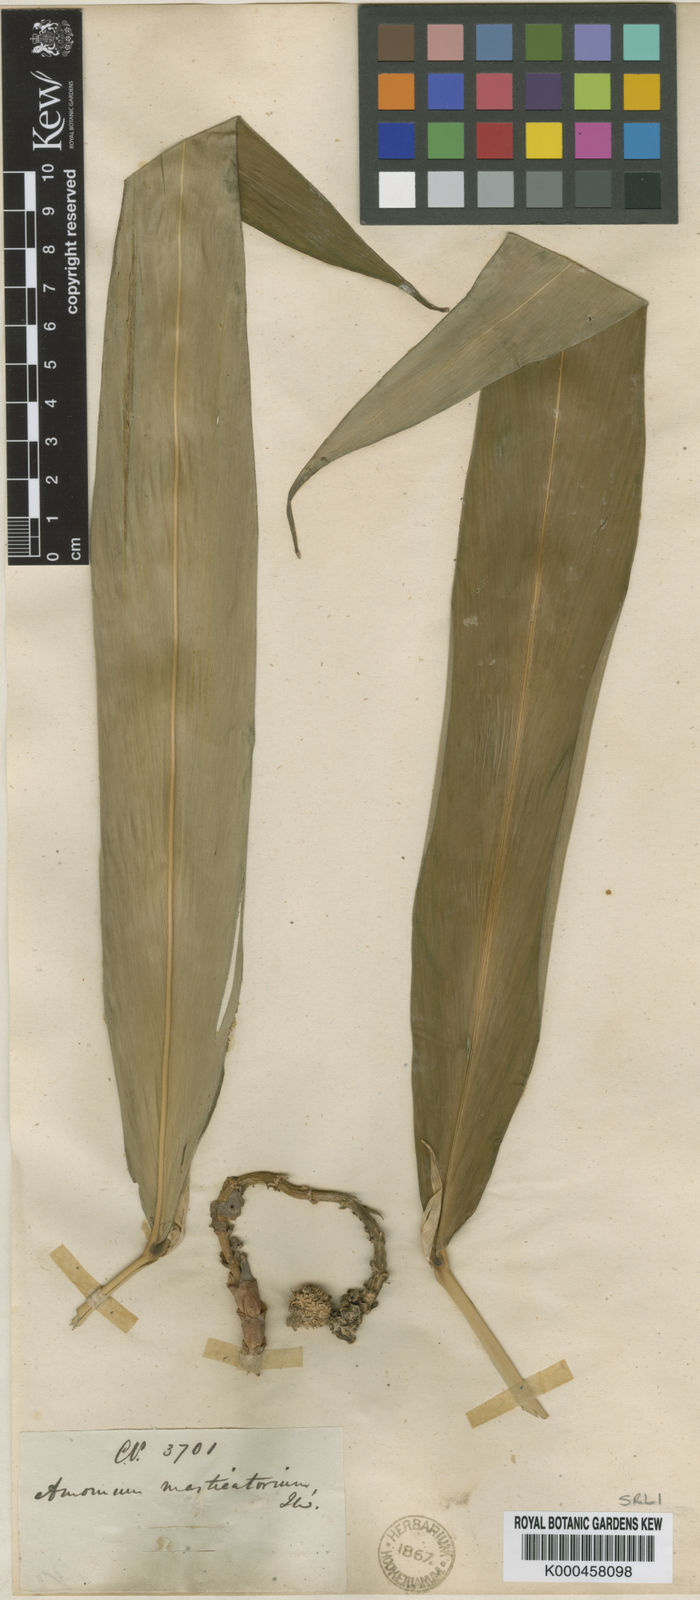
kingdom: Plantae
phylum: Tracheophyta
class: Liliopsida
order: Zingiberales
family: Zingiberaceae
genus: Meistera
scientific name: Meistera masticatorium
